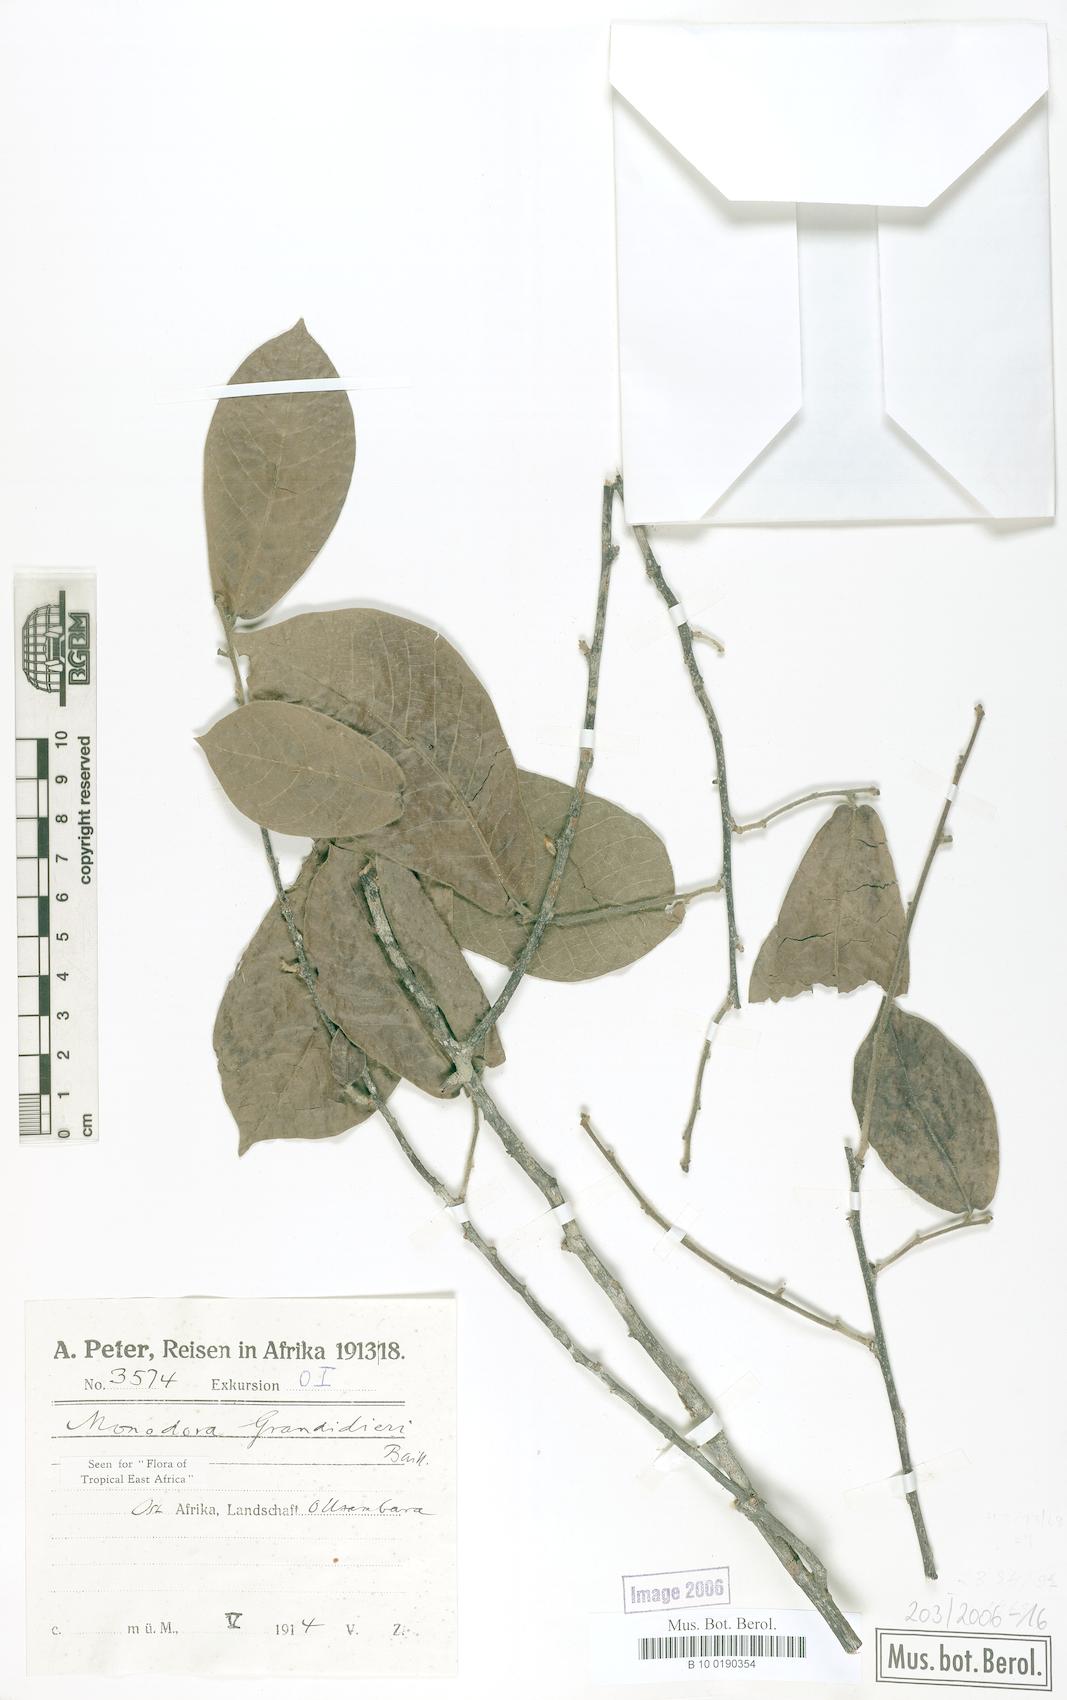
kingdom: Plantae
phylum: Tracheophyta
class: Magnoliopsida
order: Magnoliales
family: Annonaceae
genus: Monodora
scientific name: Monodora grandidieri
